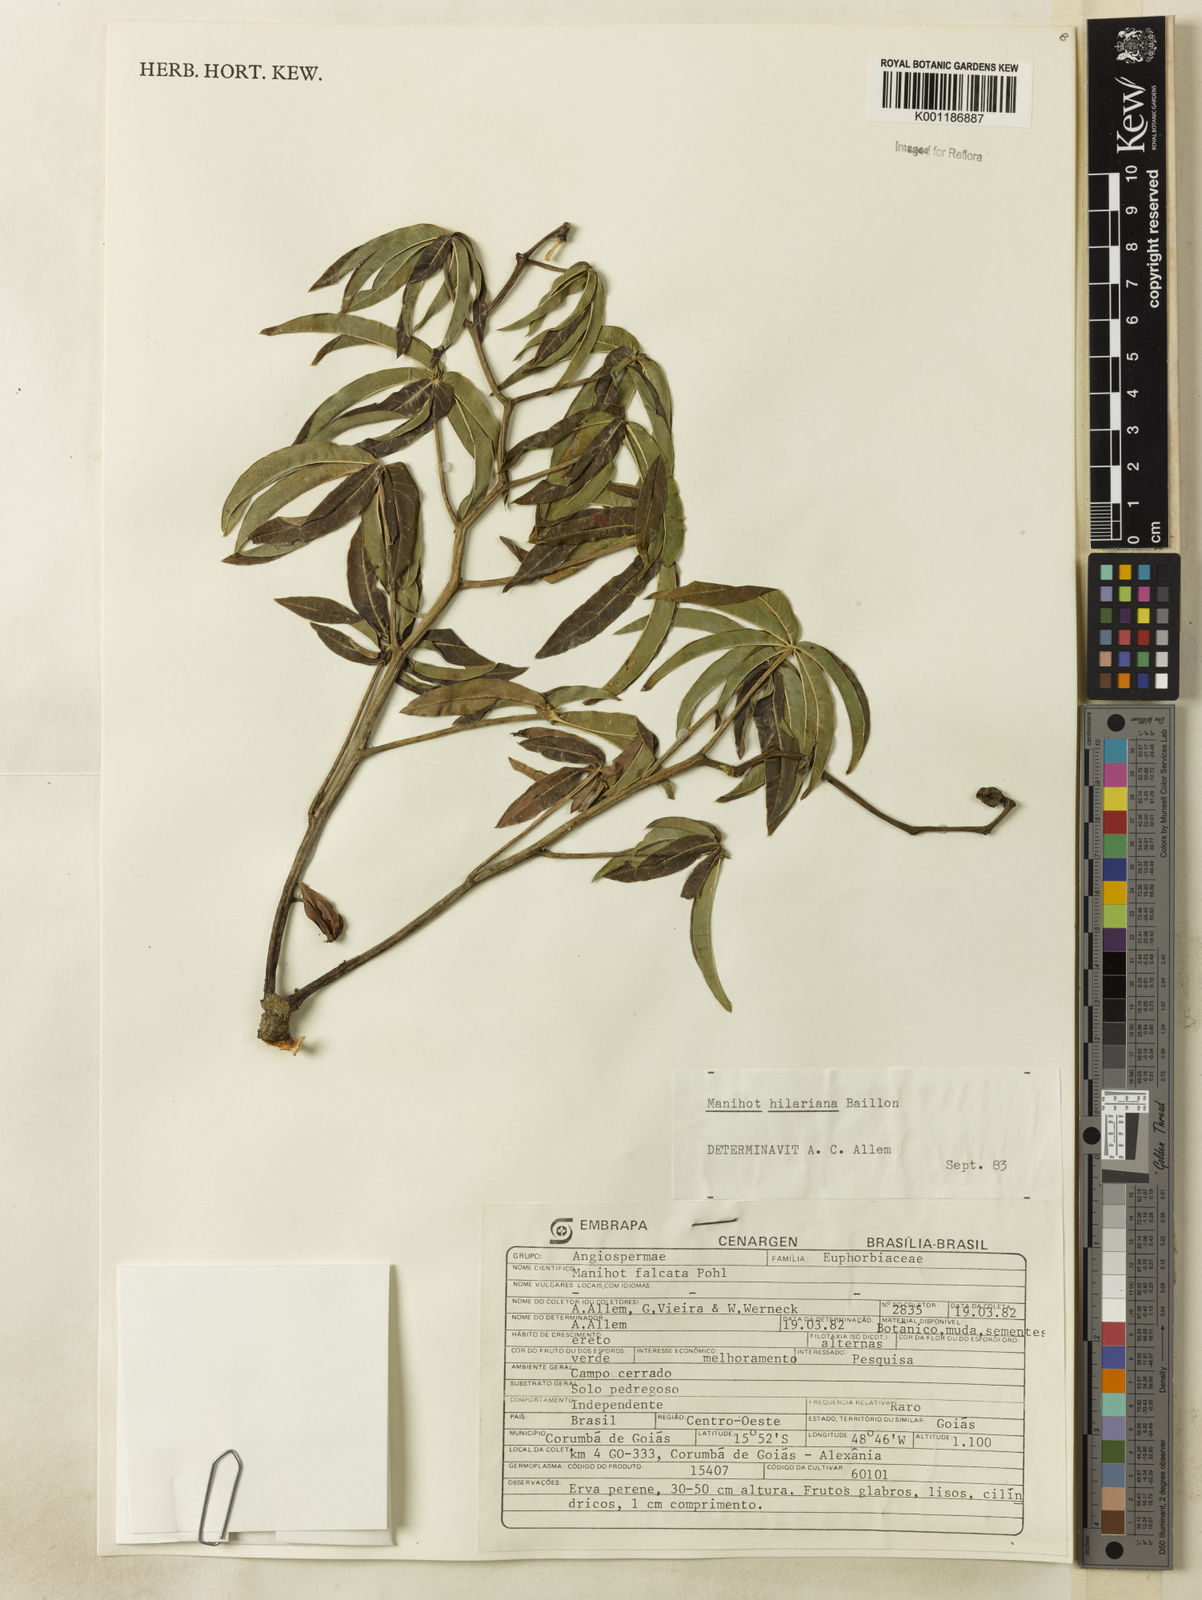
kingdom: Plantae
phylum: Tracheophyta
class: Magnoliopsida
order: Malpighiales
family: Euphorbiaceae
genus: Manihot
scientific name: Manihot hilariana
